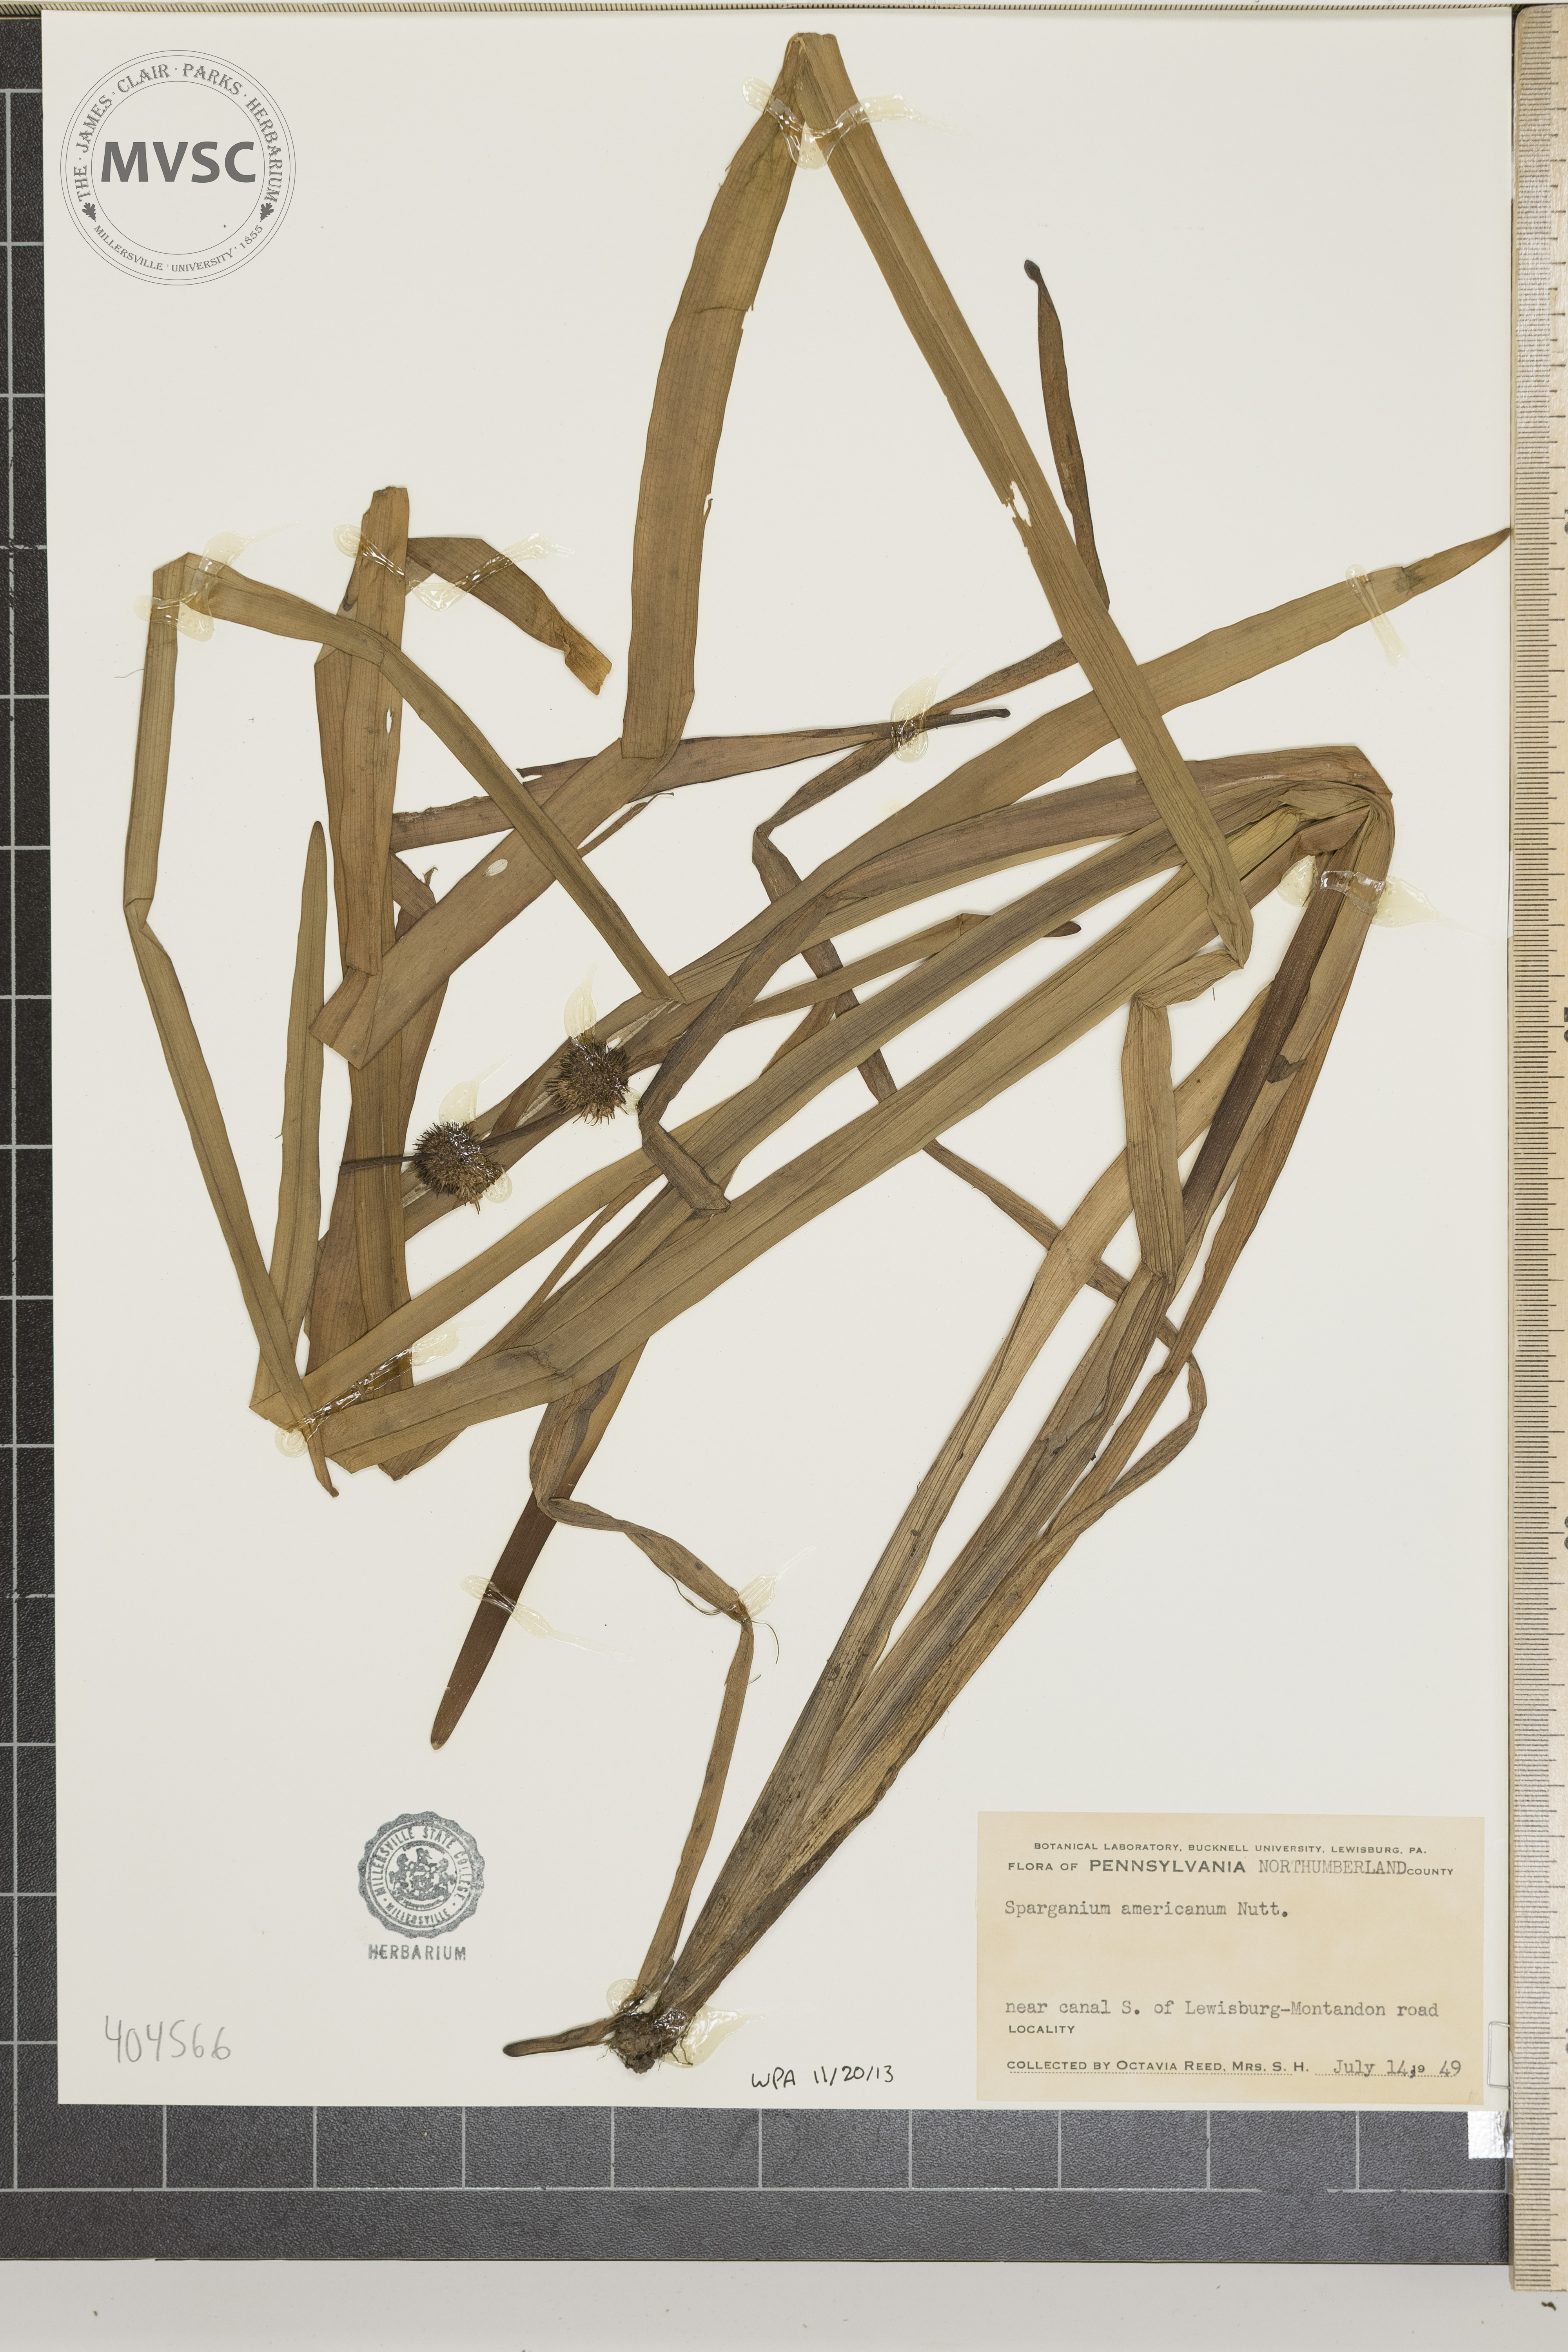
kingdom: Plantae
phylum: Tracheophyta
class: Liliopsida
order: Poales
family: Typhaceae
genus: Sparganium
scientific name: Sparganium americanum
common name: American burreed
